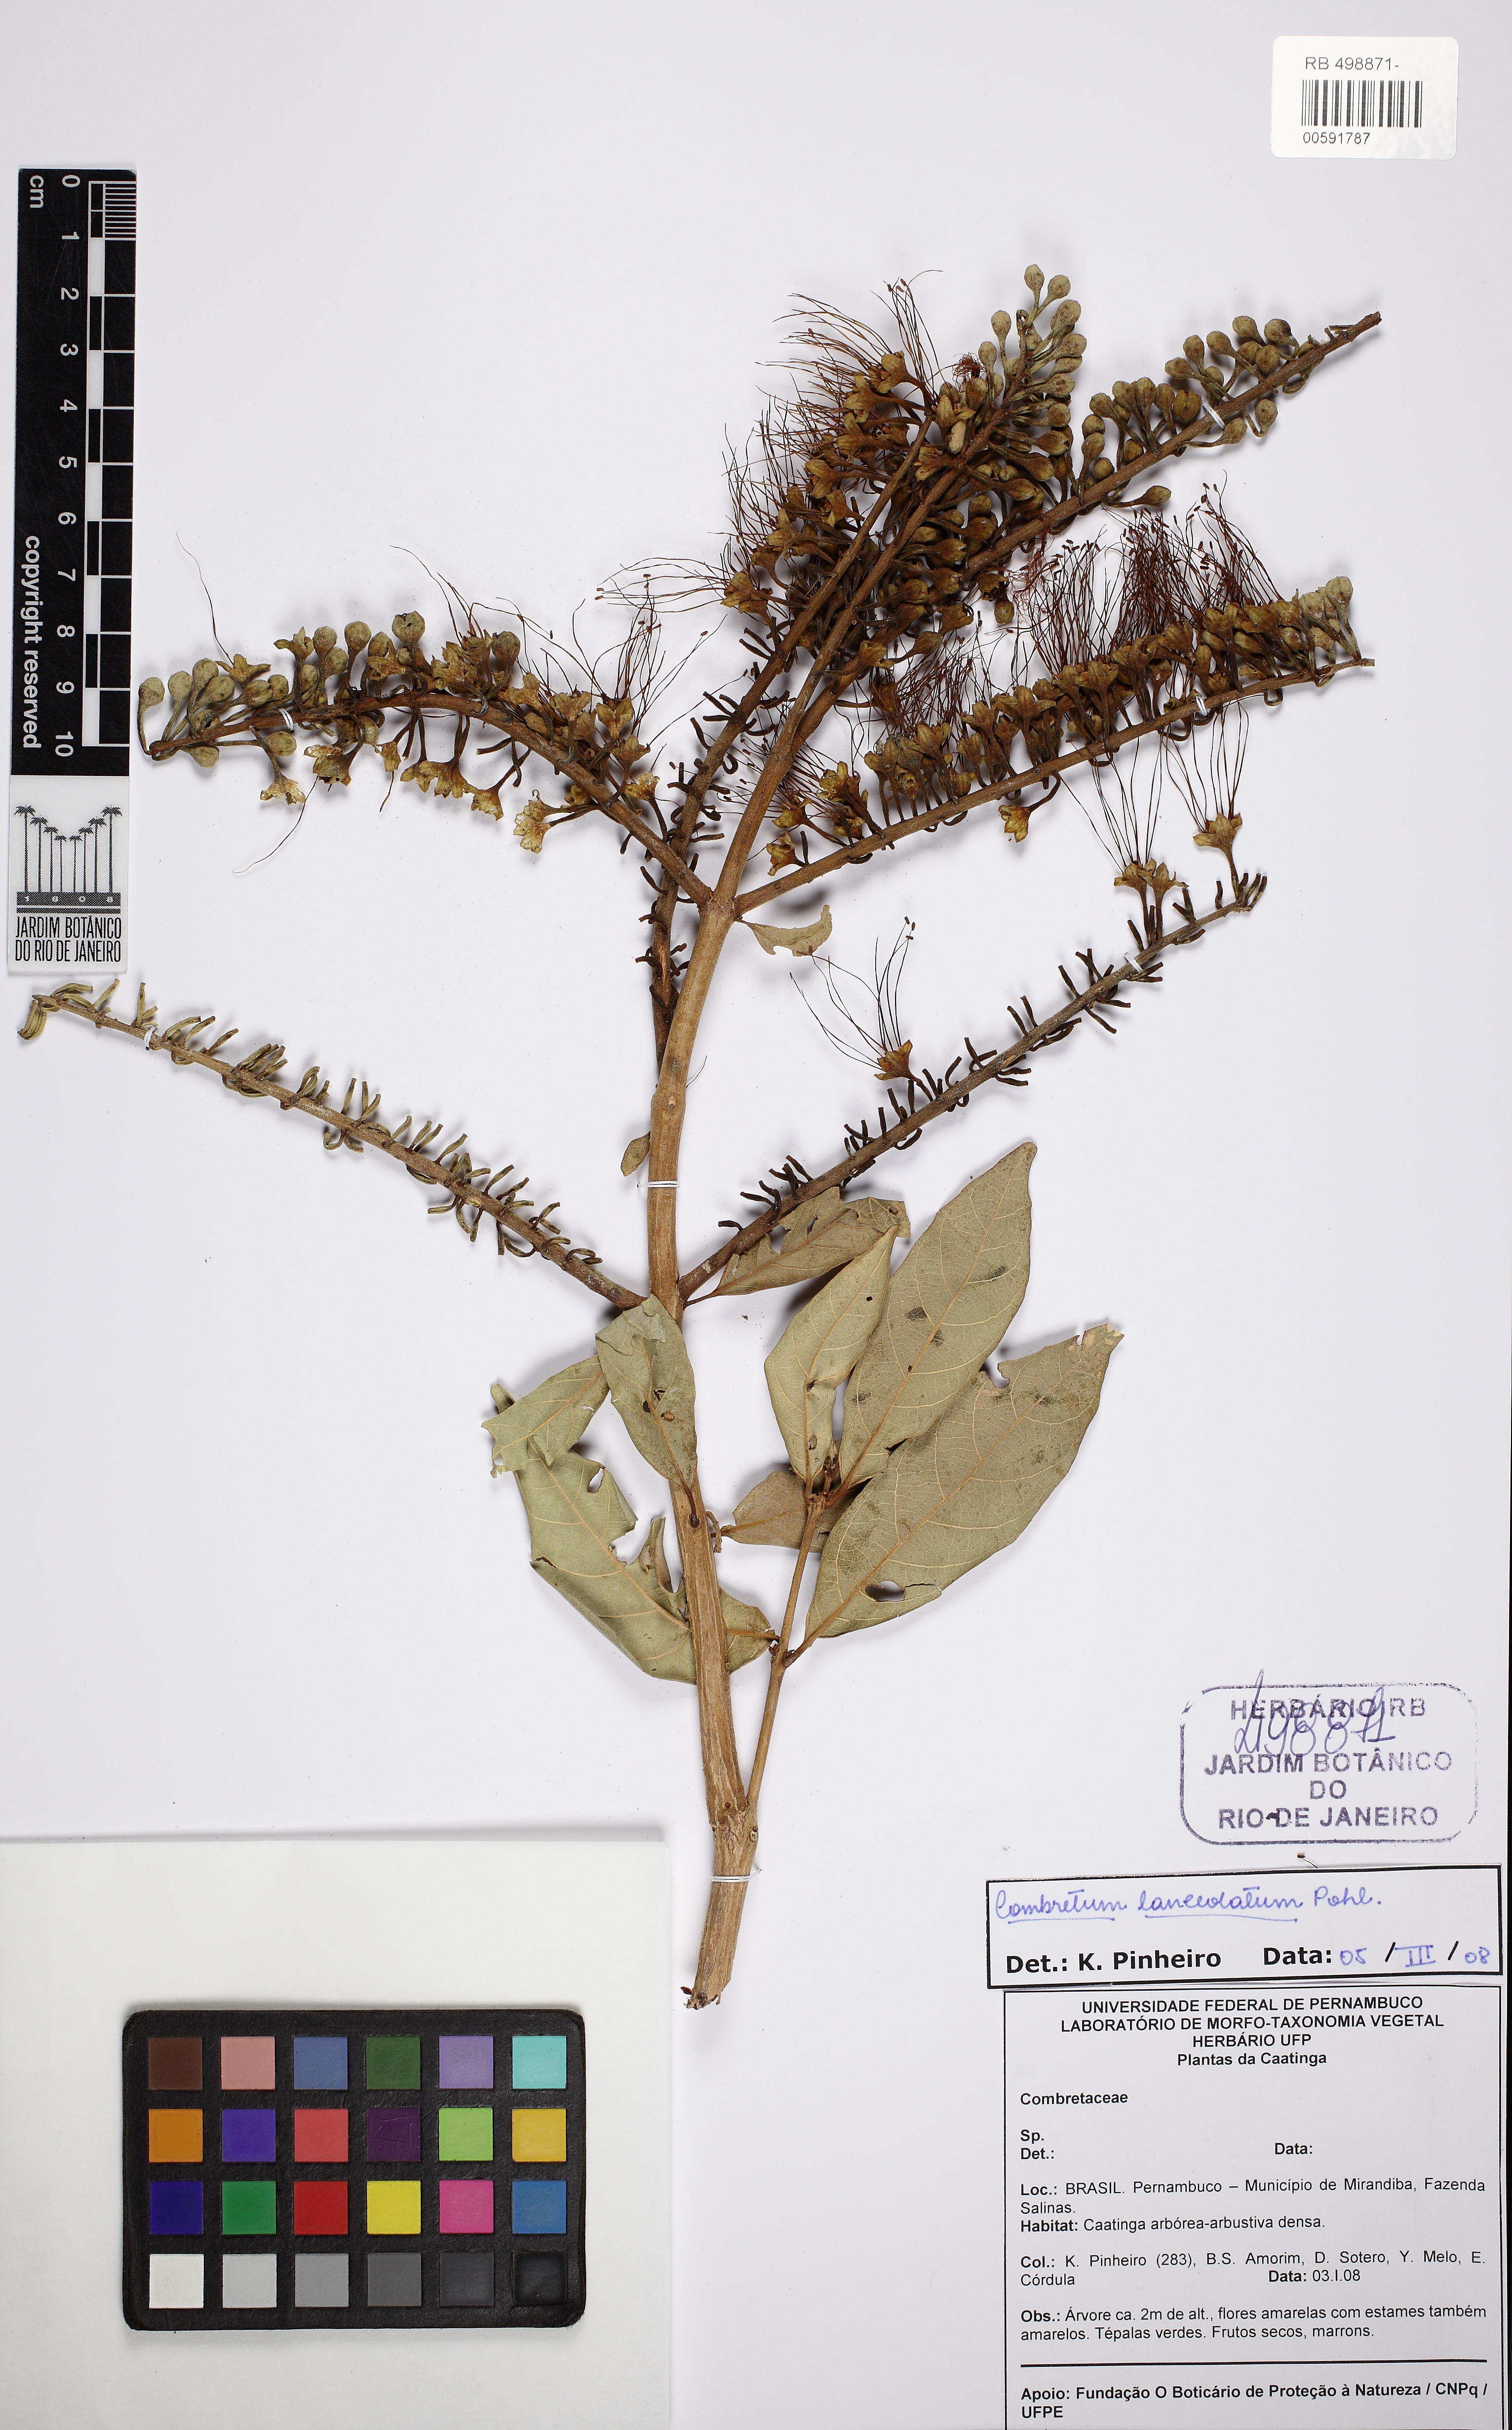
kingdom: Plantae
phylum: Tracheophyta
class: Magnoliopsida
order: Myrtales
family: Combretaceae
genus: Combretum
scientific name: Combretum lanceolatum
